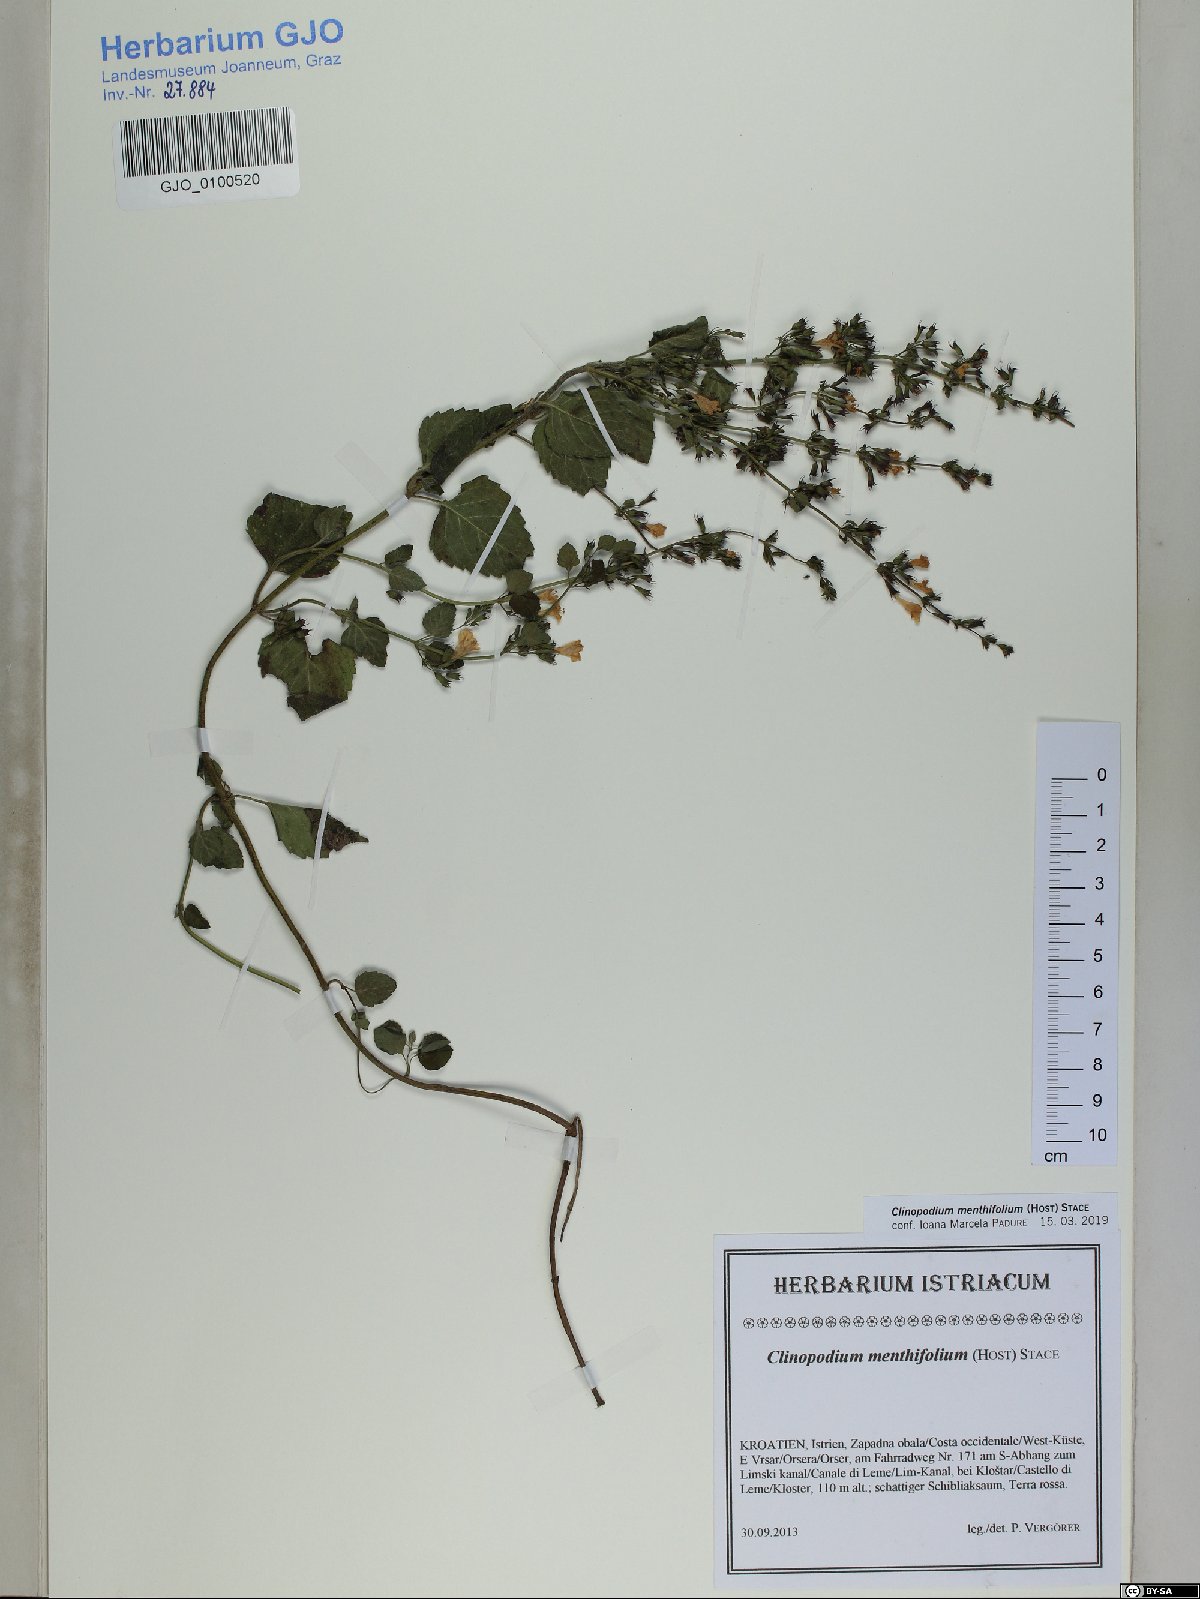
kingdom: Plantae
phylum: Tracheophyta
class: Magnoliopsida
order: Lamiales
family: Lamiaceae
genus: Clinopodium
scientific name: Clinopodium menthifolium
